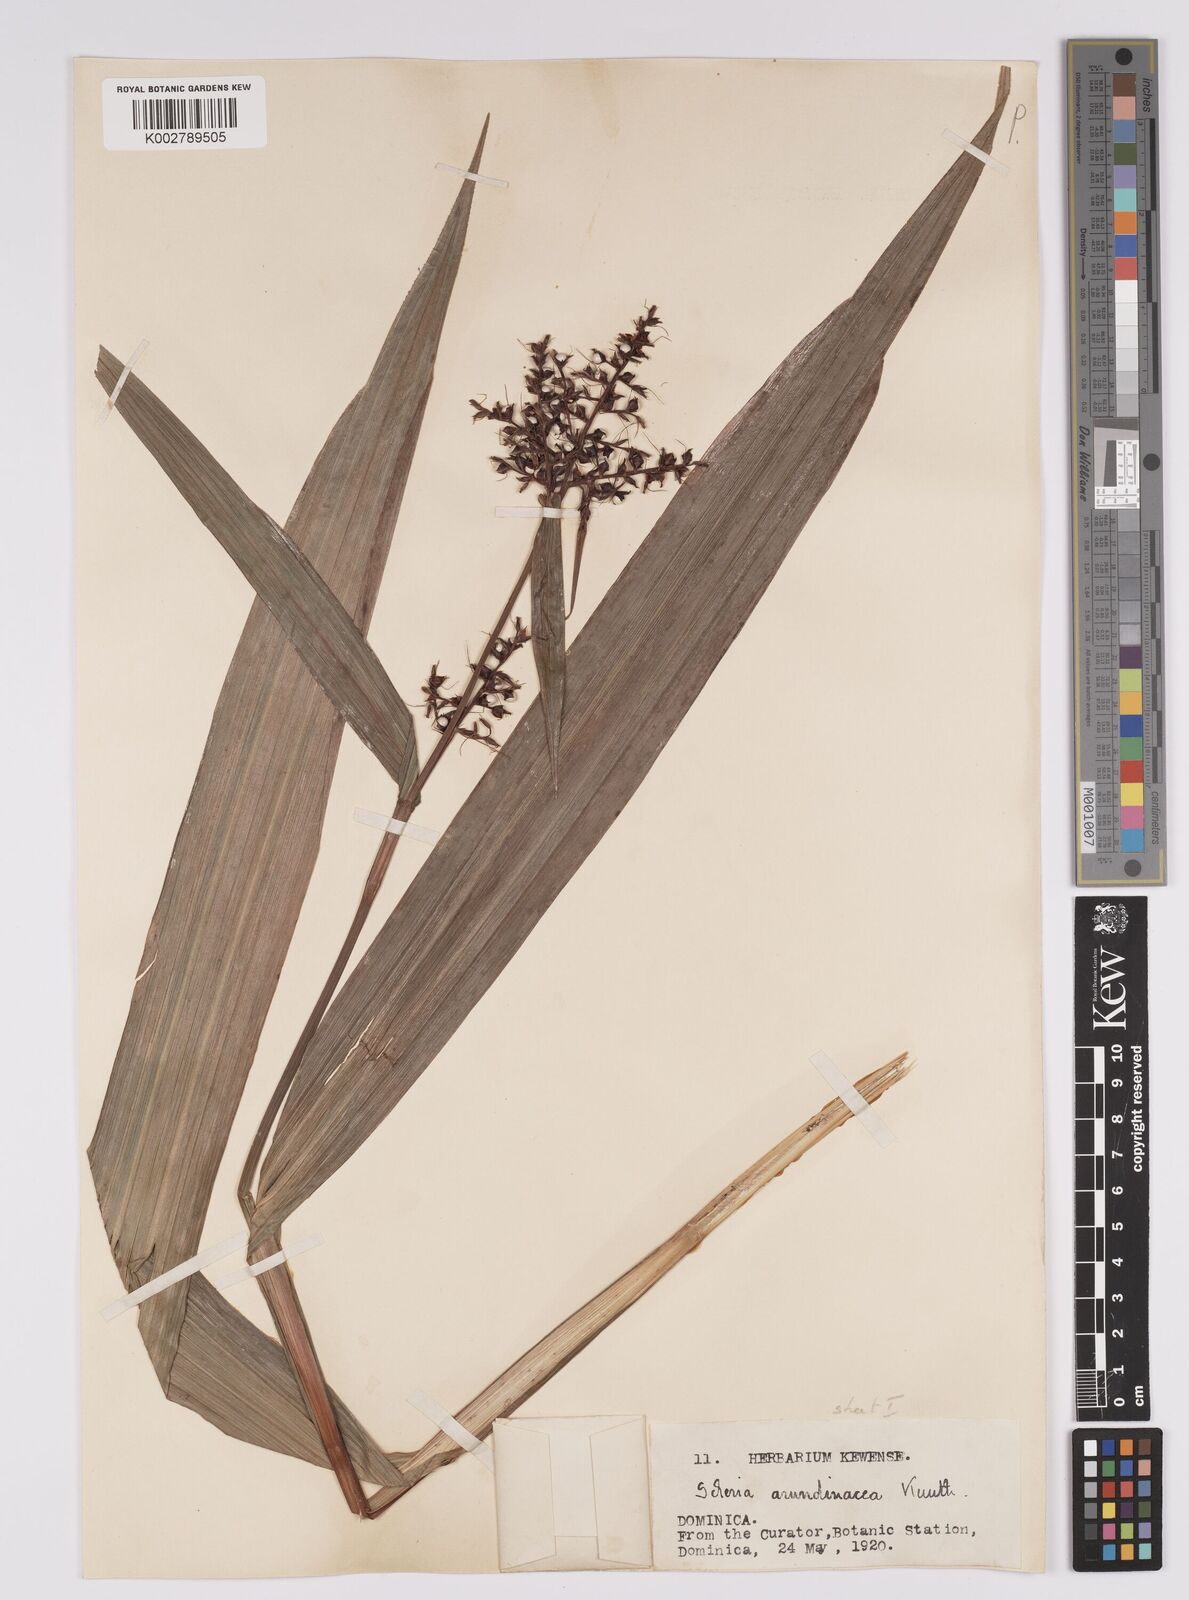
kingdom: Plantae
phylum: Tracheophyta
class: Liliopsida
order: Poales
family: Cyperaceae
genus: Scleria
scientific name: Scleria latifolia
